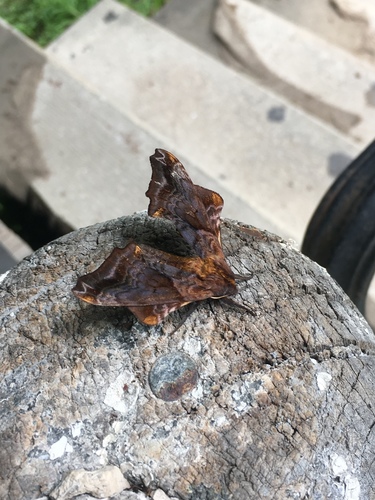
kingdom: Animalia
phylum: Arthropoda
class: Insecta
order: Lepidoptera
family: Sphingidae
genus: Paonias
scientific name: Paonias myops
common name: Small-eyed sphinx
